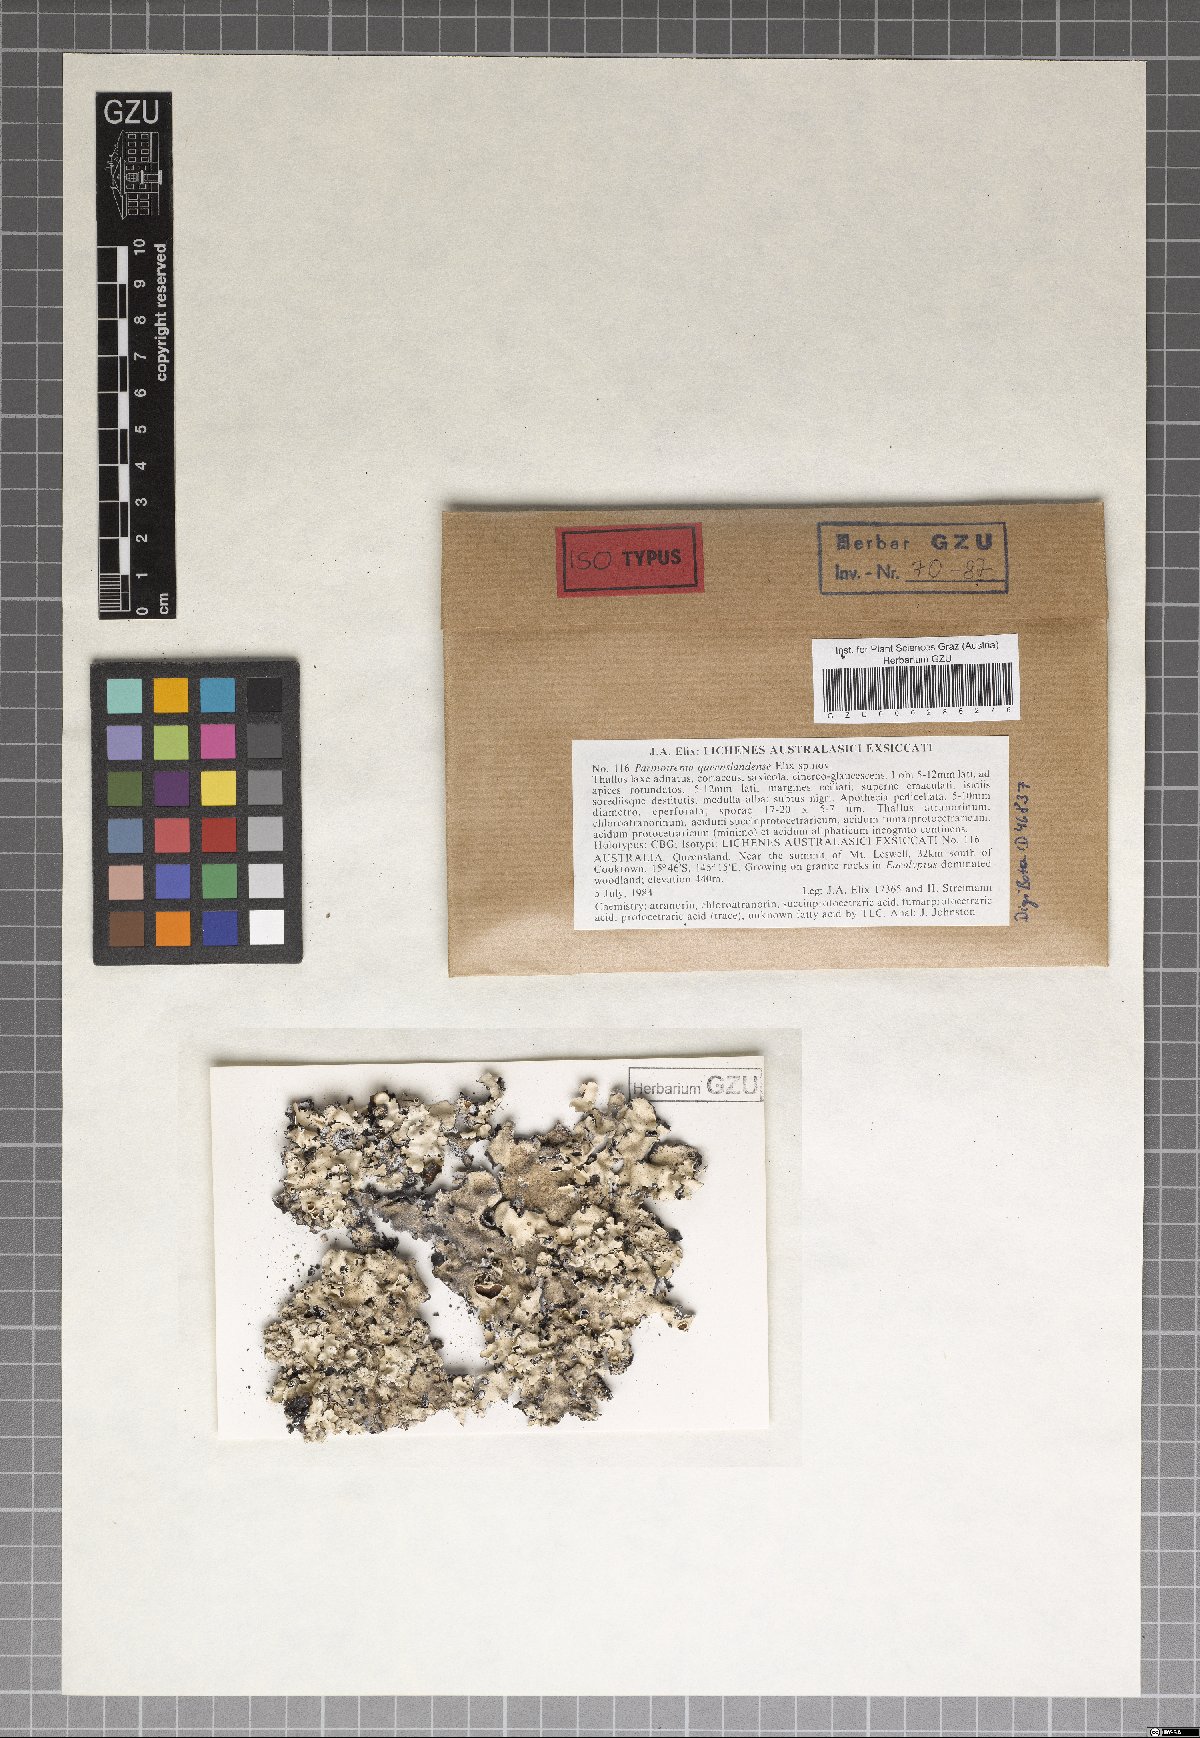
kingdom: Fungi
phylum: Ascomycota
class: Lecanoromycetes
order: Lecanorales
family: Parmeliaceae
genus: Parmotrema
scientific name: Parmotrema queenslandense
